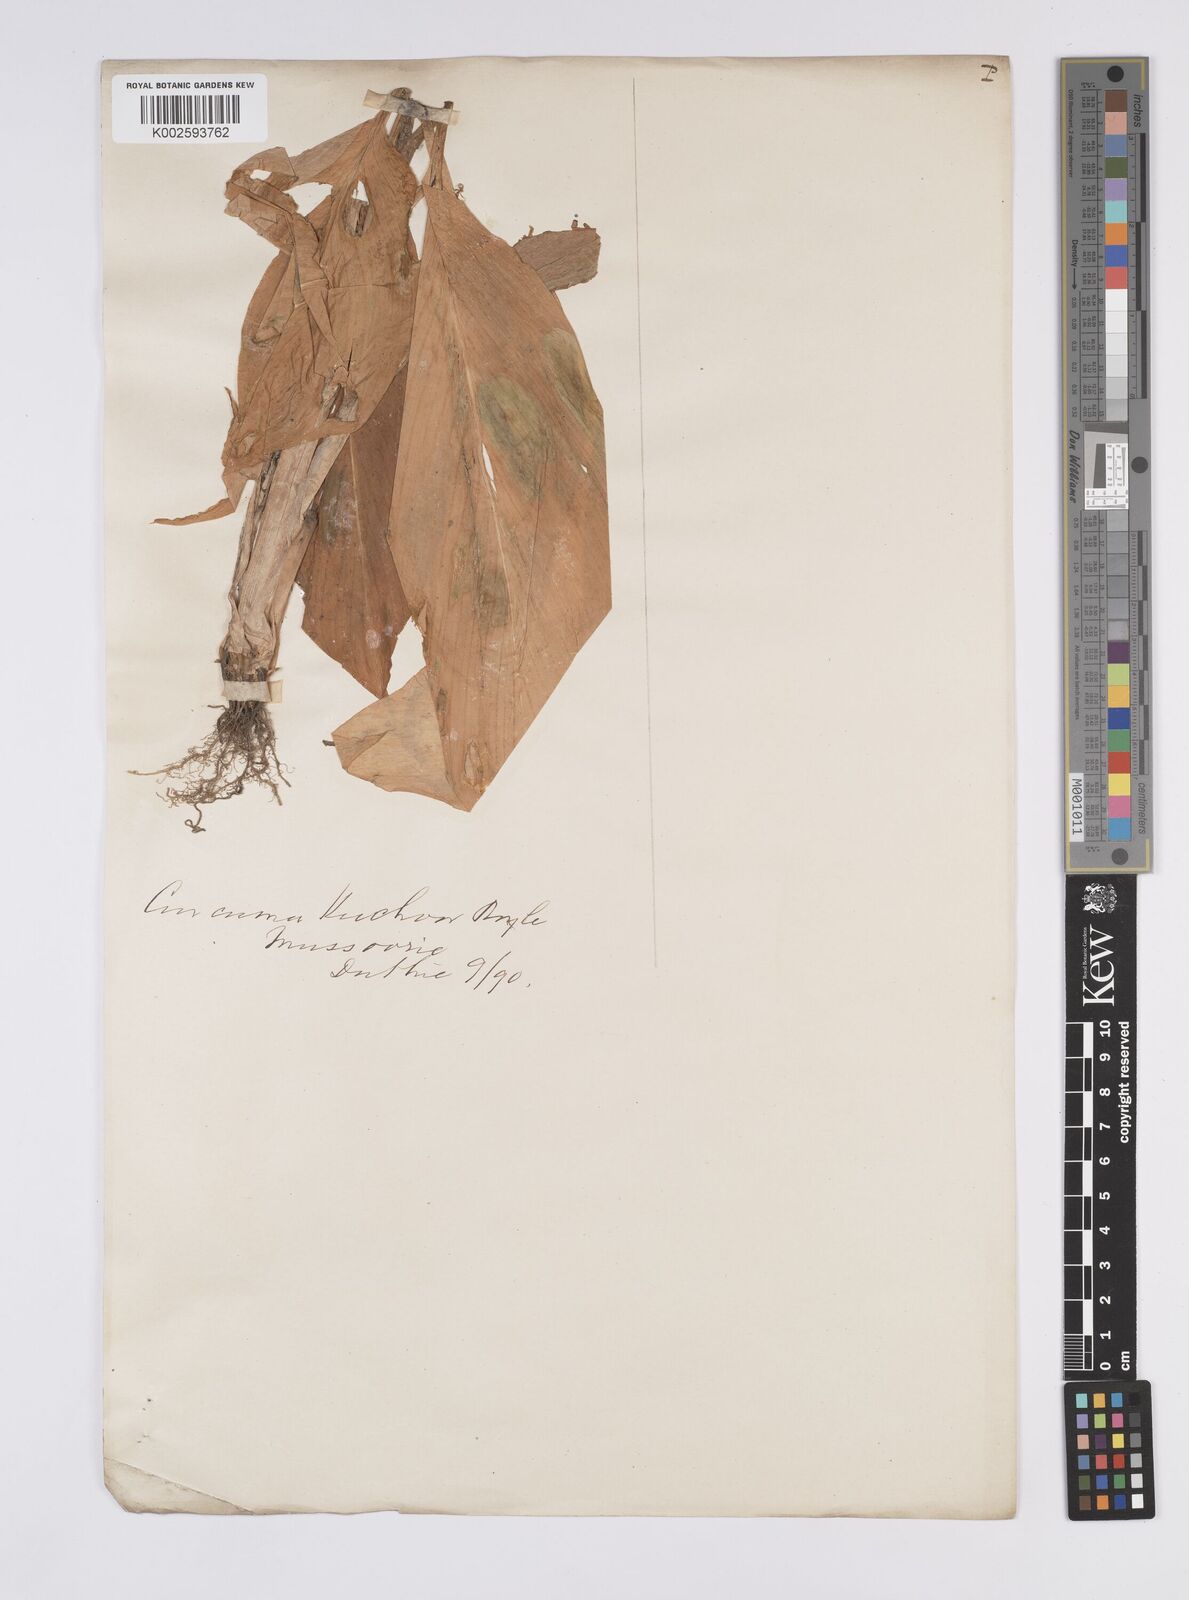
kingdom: Plantae
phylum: Tracheophyta
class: Liliopsida
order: Zingiberales
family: Zingiberaceae
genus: Curcuma
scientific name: Curcuma
